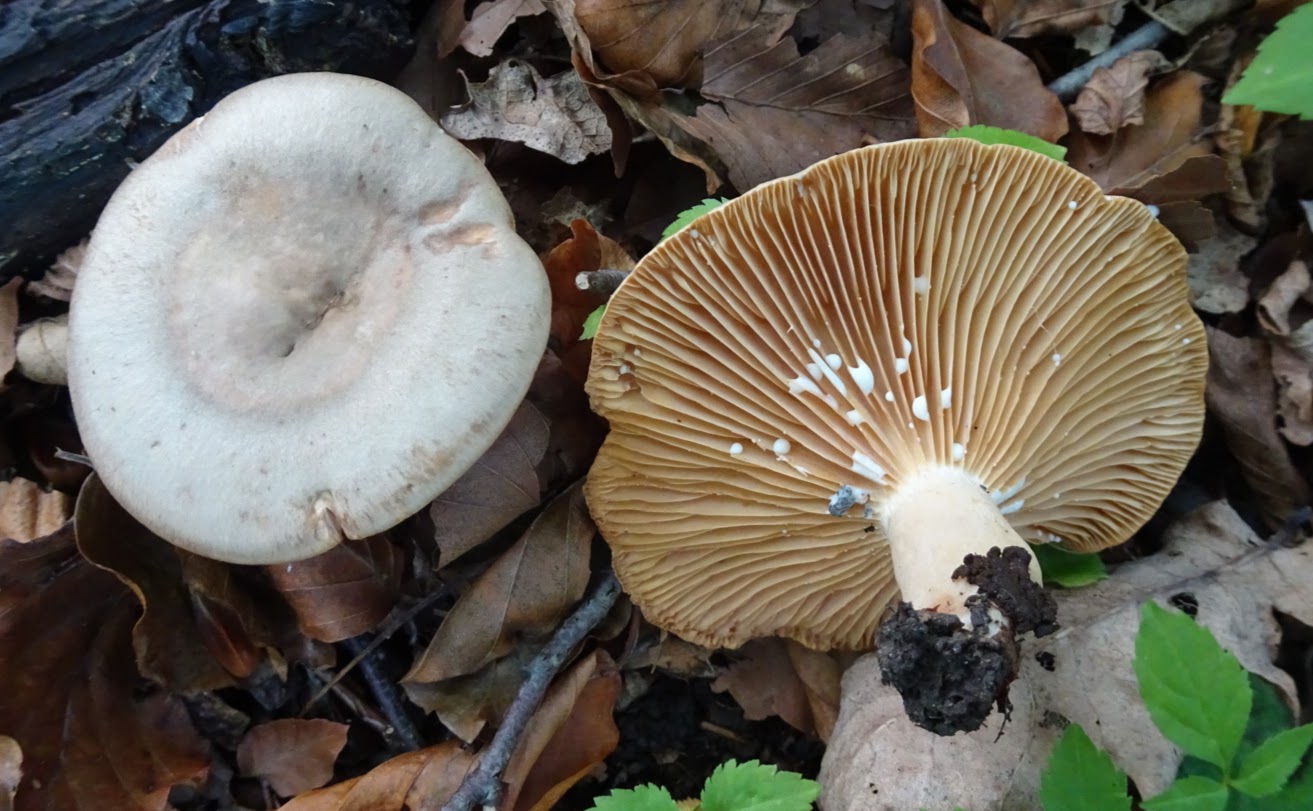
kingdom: Fungi
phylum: Basidiomycota
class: Agaricomycetes
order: Russulales
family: Russulaceae
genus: Lactarius
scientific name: Lactarius pyrogalus
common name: hassel-mælkehat
